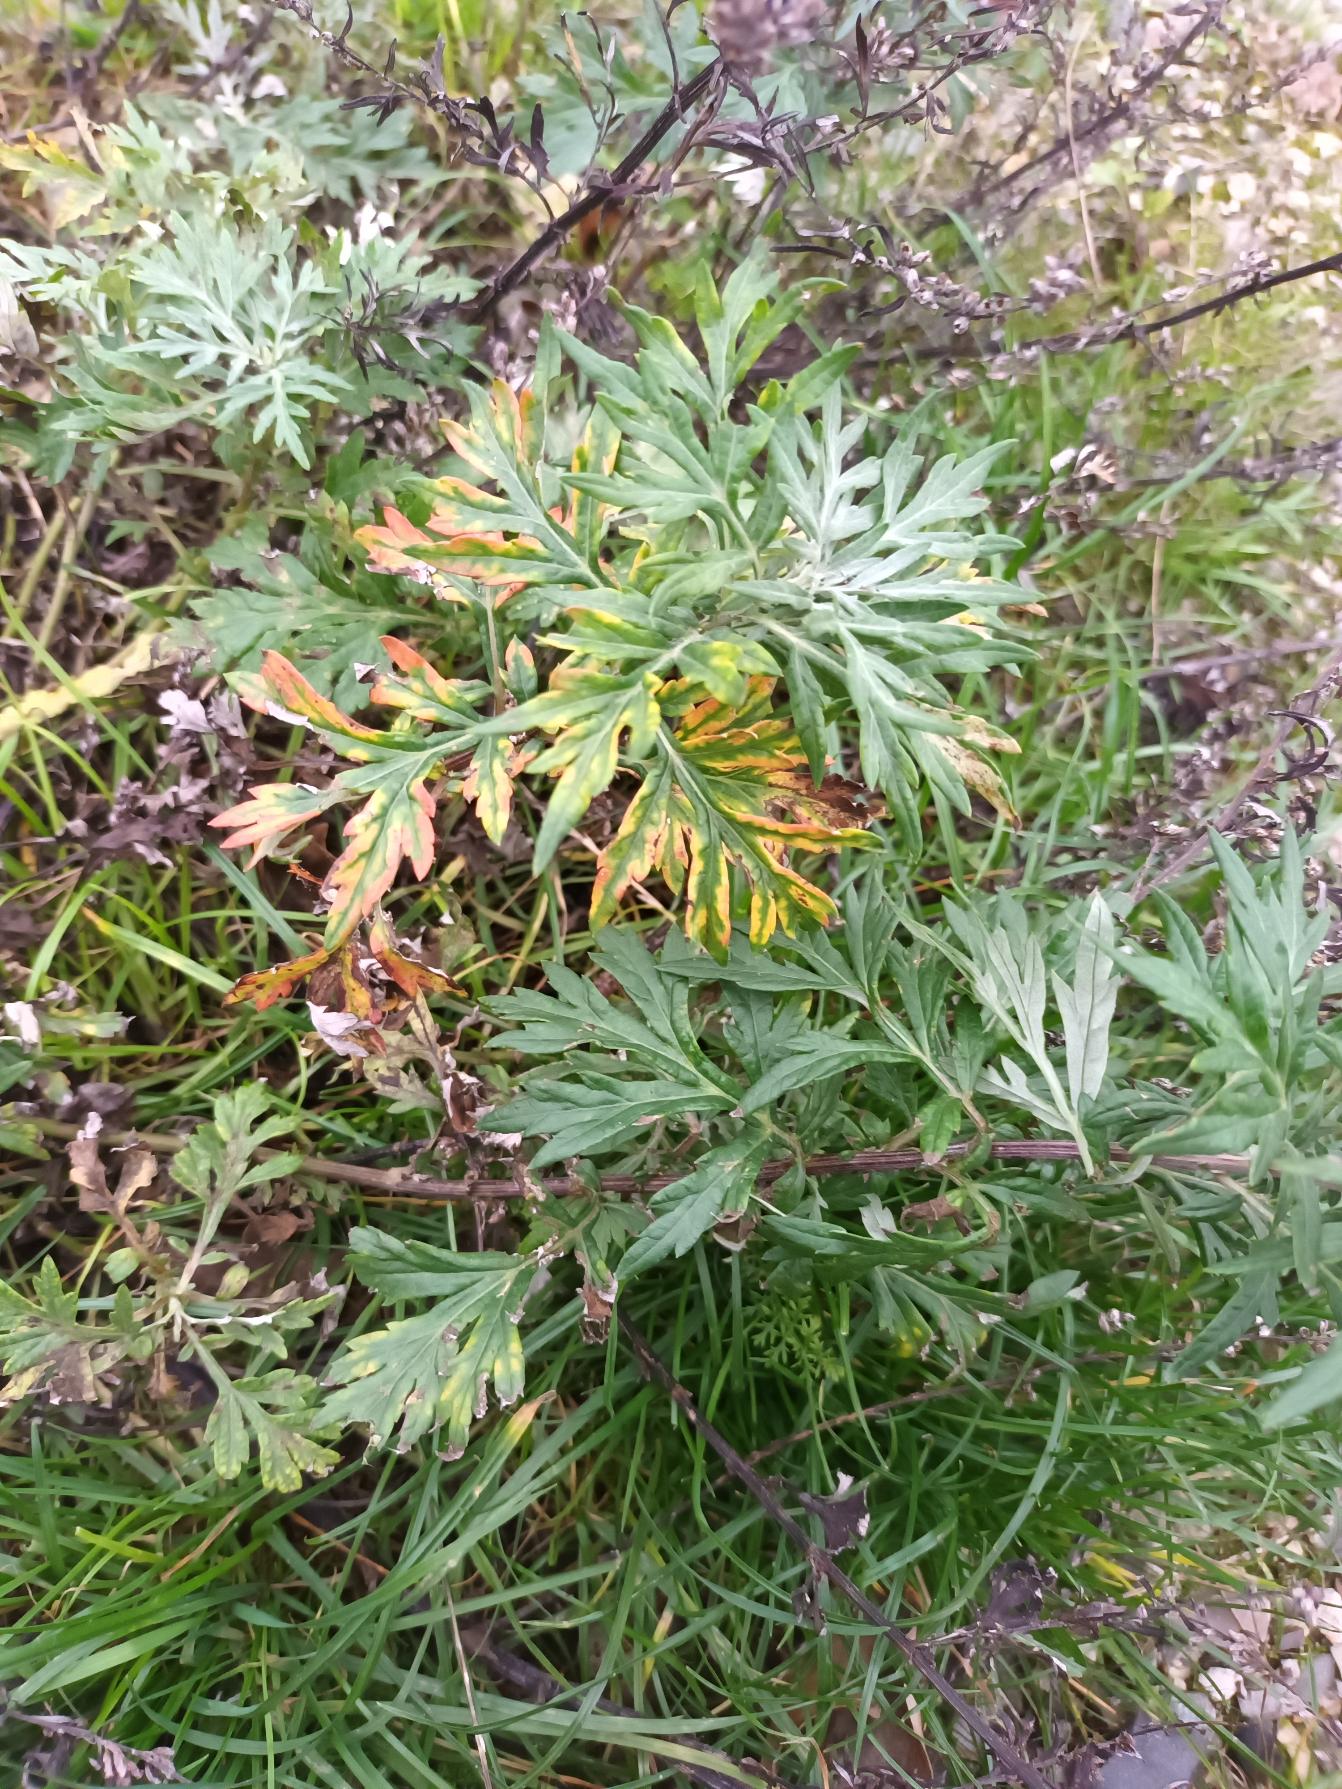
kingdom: Plantae
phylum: Tracheophyta
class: Magnoliopsida
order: Asterales
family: Asteraceae
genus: Artemisia
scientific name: Artemisia vulgaris
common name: Grå-bynke
